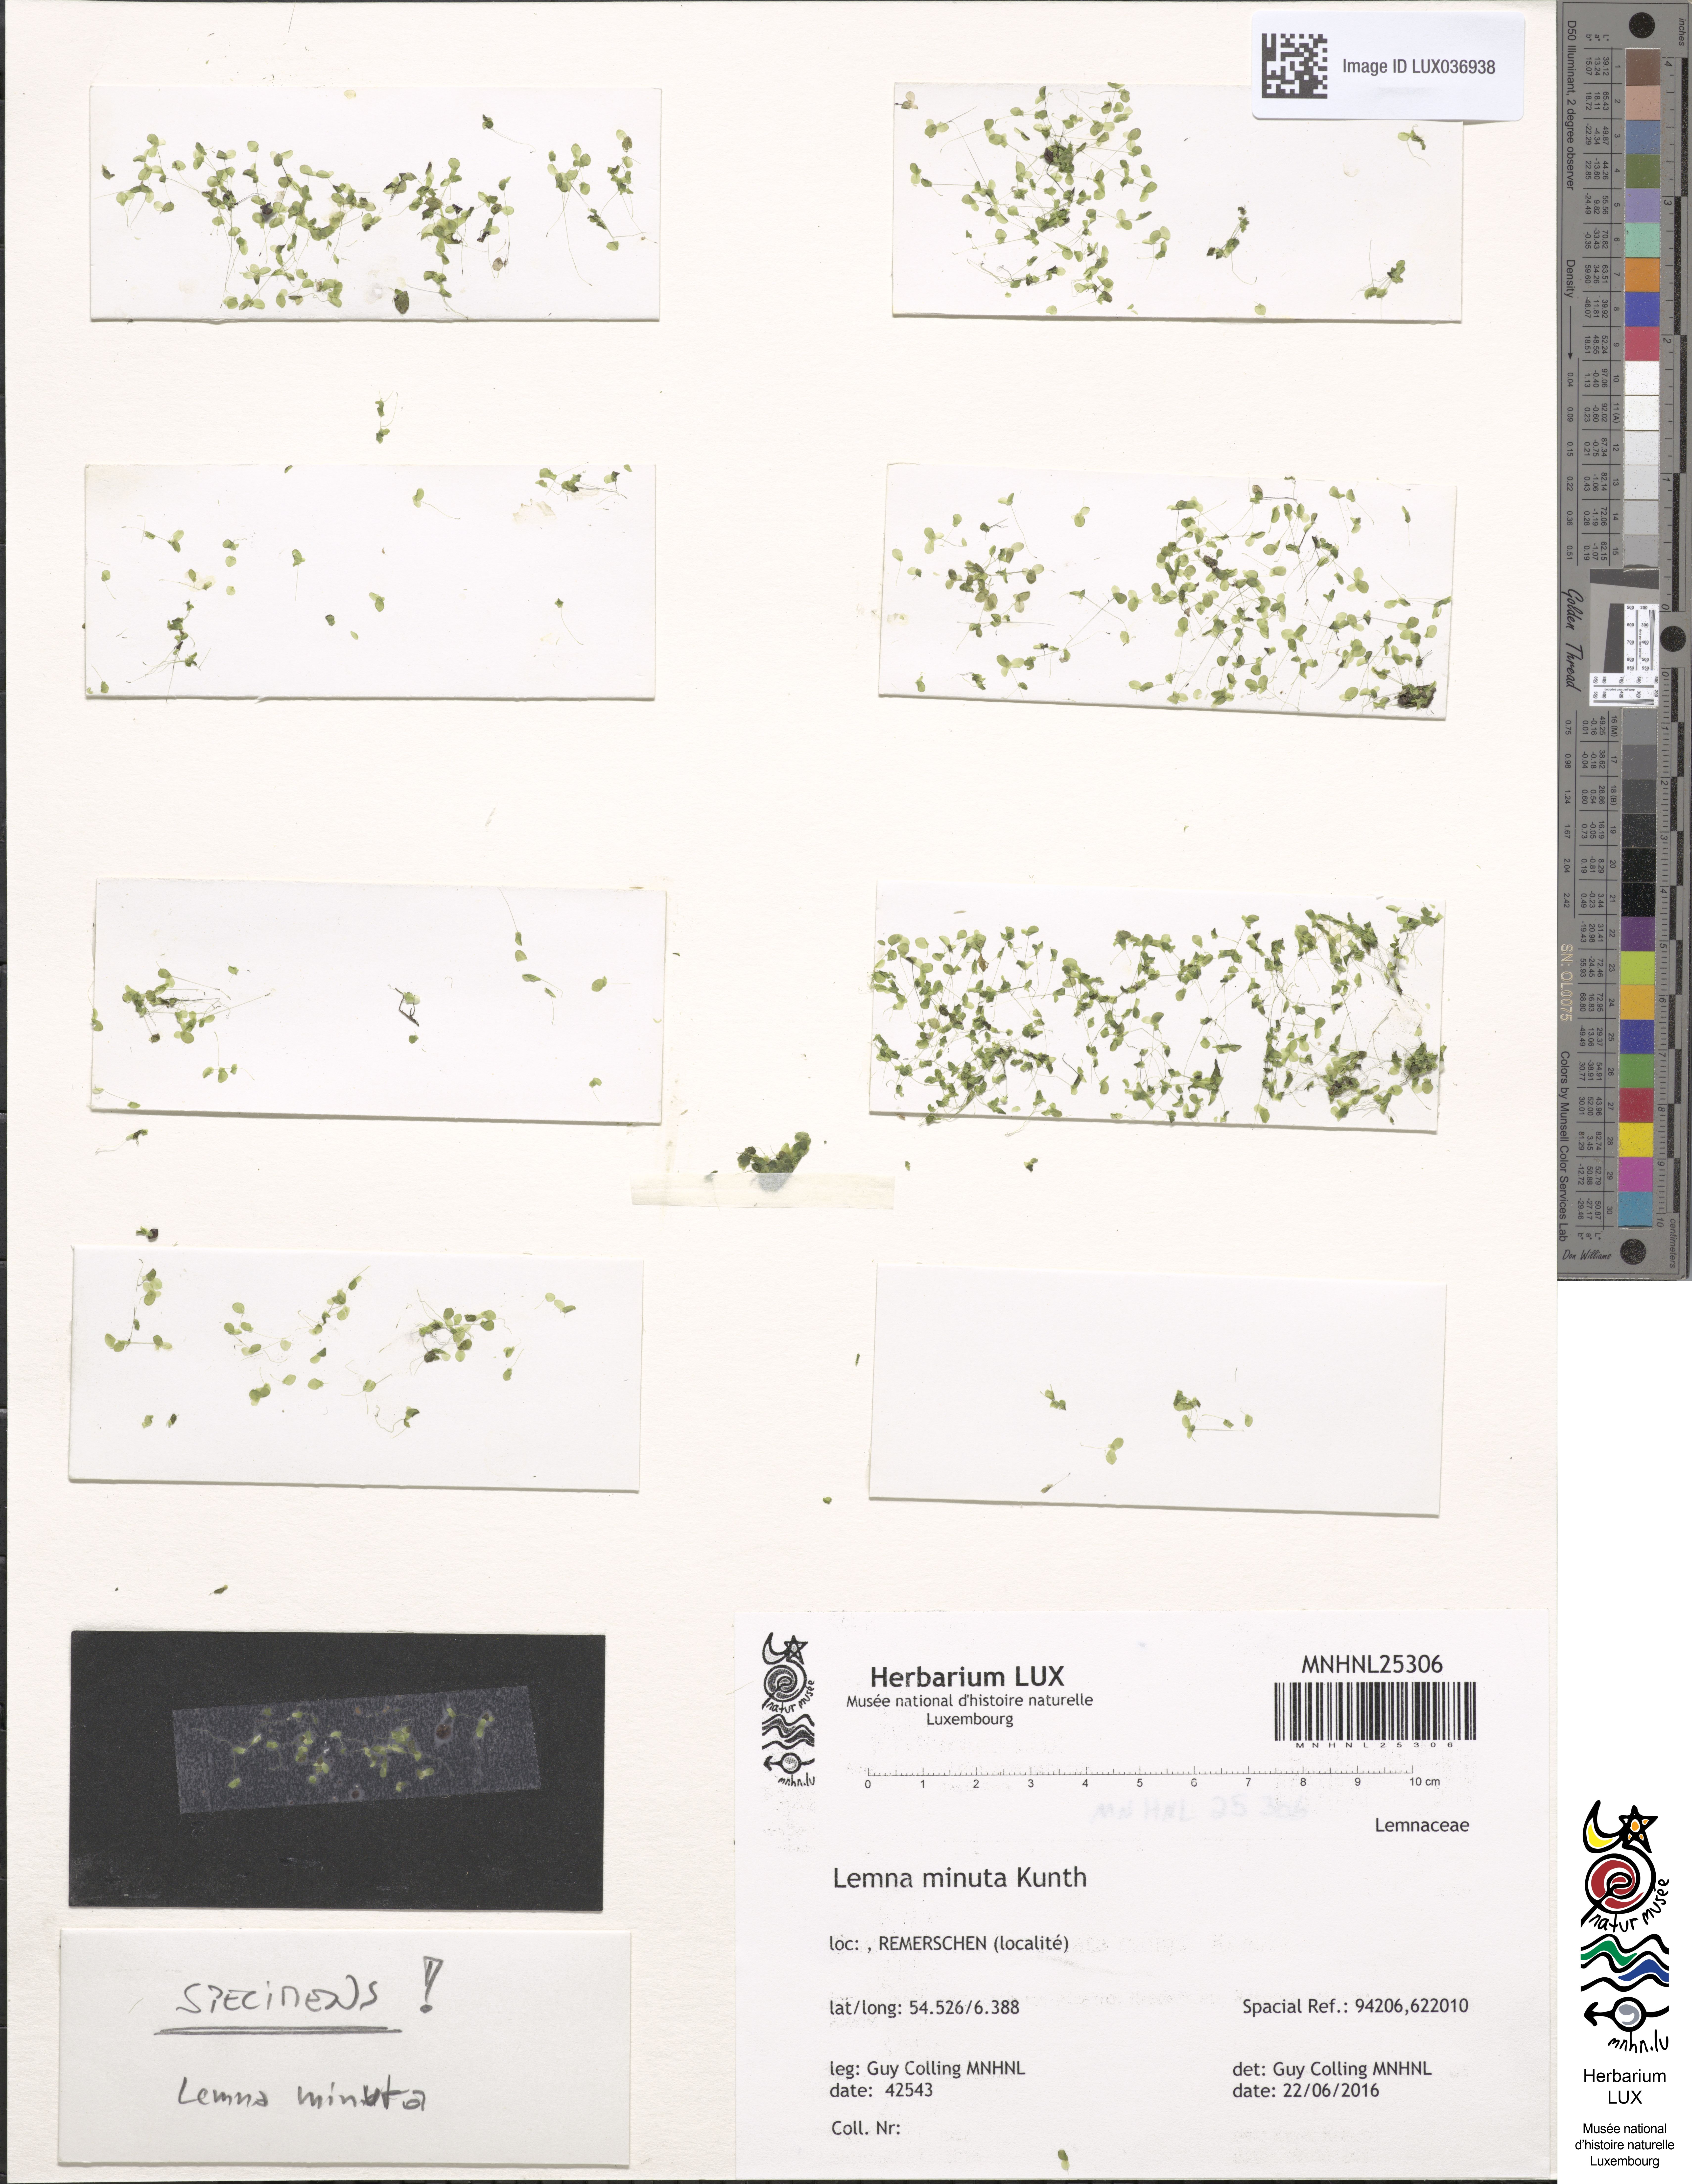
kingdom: Plantae
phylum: Tracheophyta
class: Liliopsida
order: Alismatales
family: Araceae
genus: Lemna
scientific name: Lemna minuta
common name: Least duckweed
